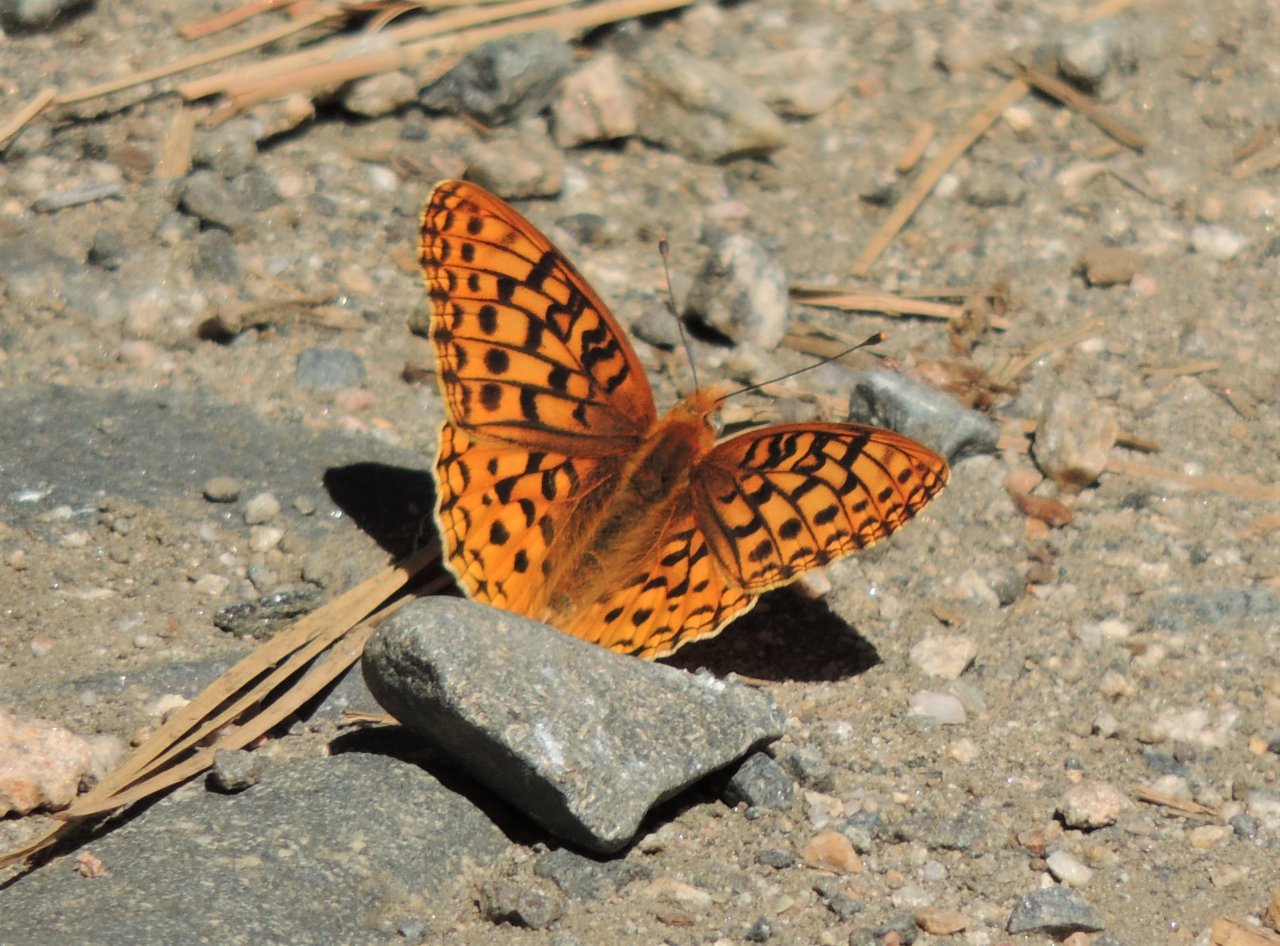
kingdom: Animalia
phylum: Arthropoda
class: Insecta
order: Lepidoptera
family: Nymphalidae
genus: Speyeria
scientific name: Speyeria
